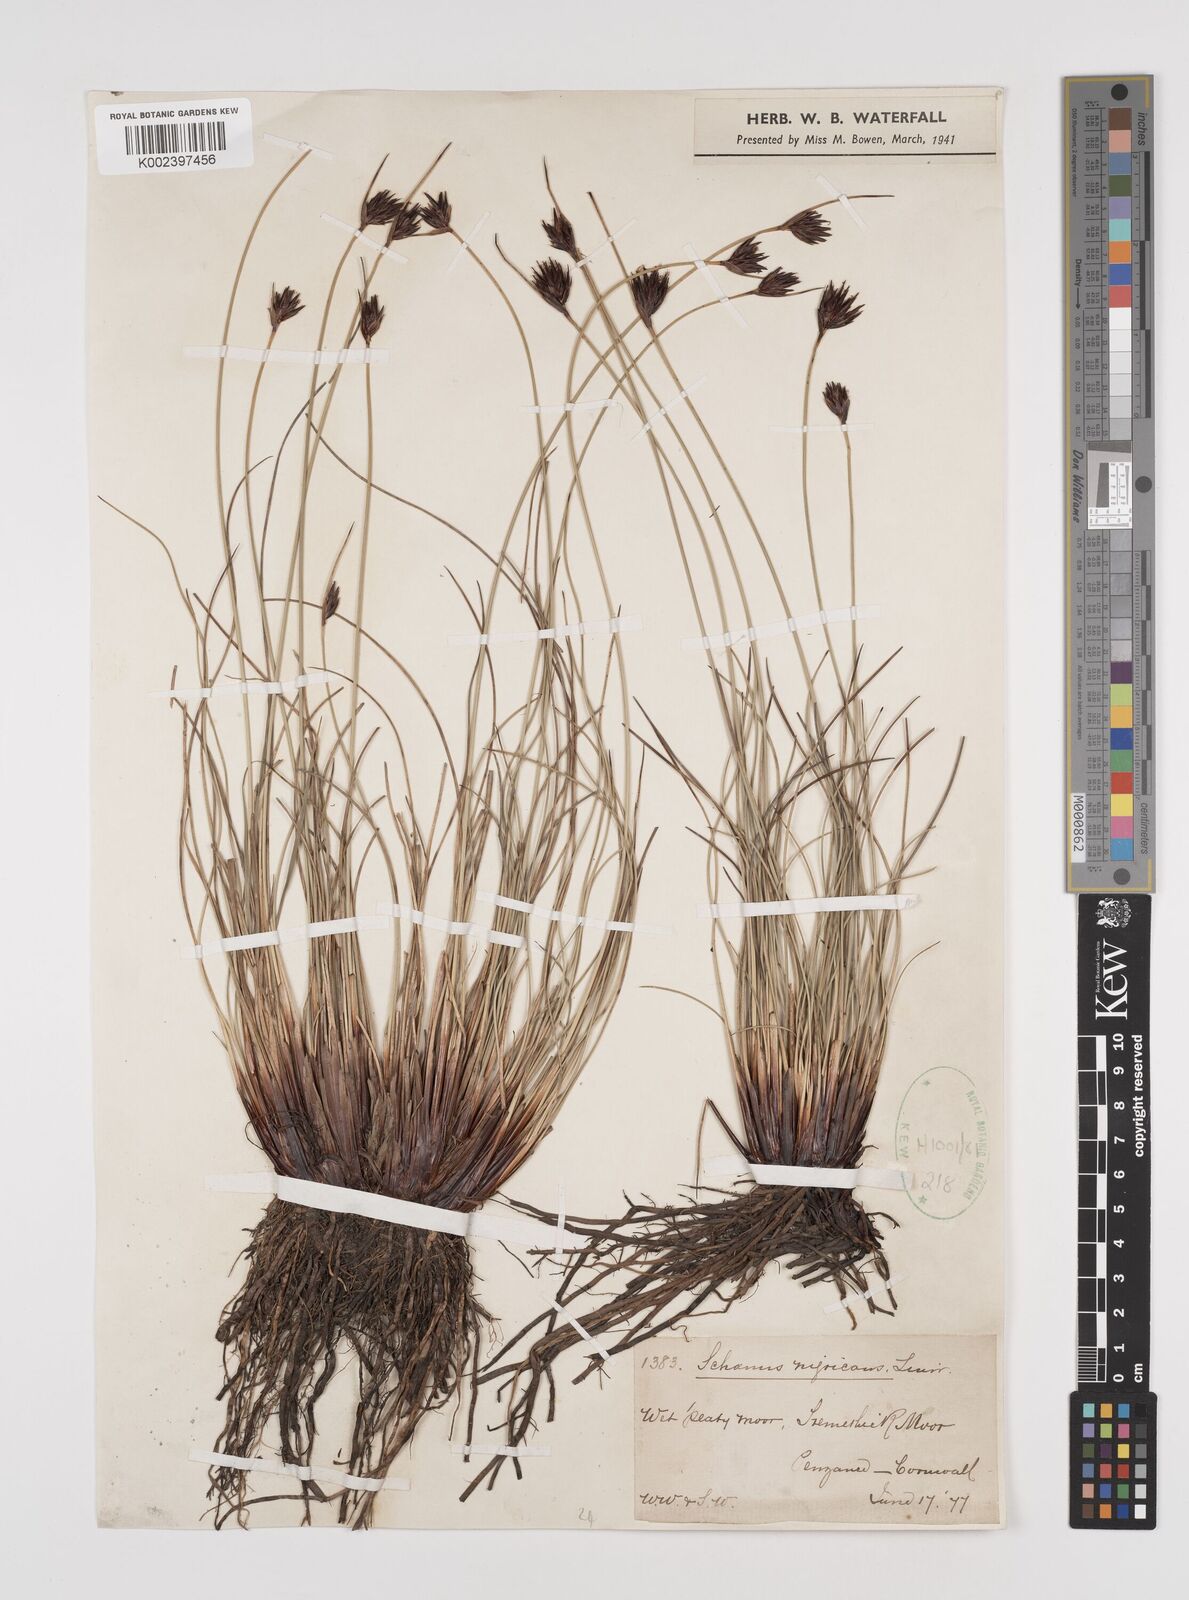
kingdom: Plantae
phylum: Tracheophyta
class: Liliopsida
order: Poales
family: Cyperaceae
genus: Schoenus
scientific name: Schoenus nigricans
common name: Black bog-rush
